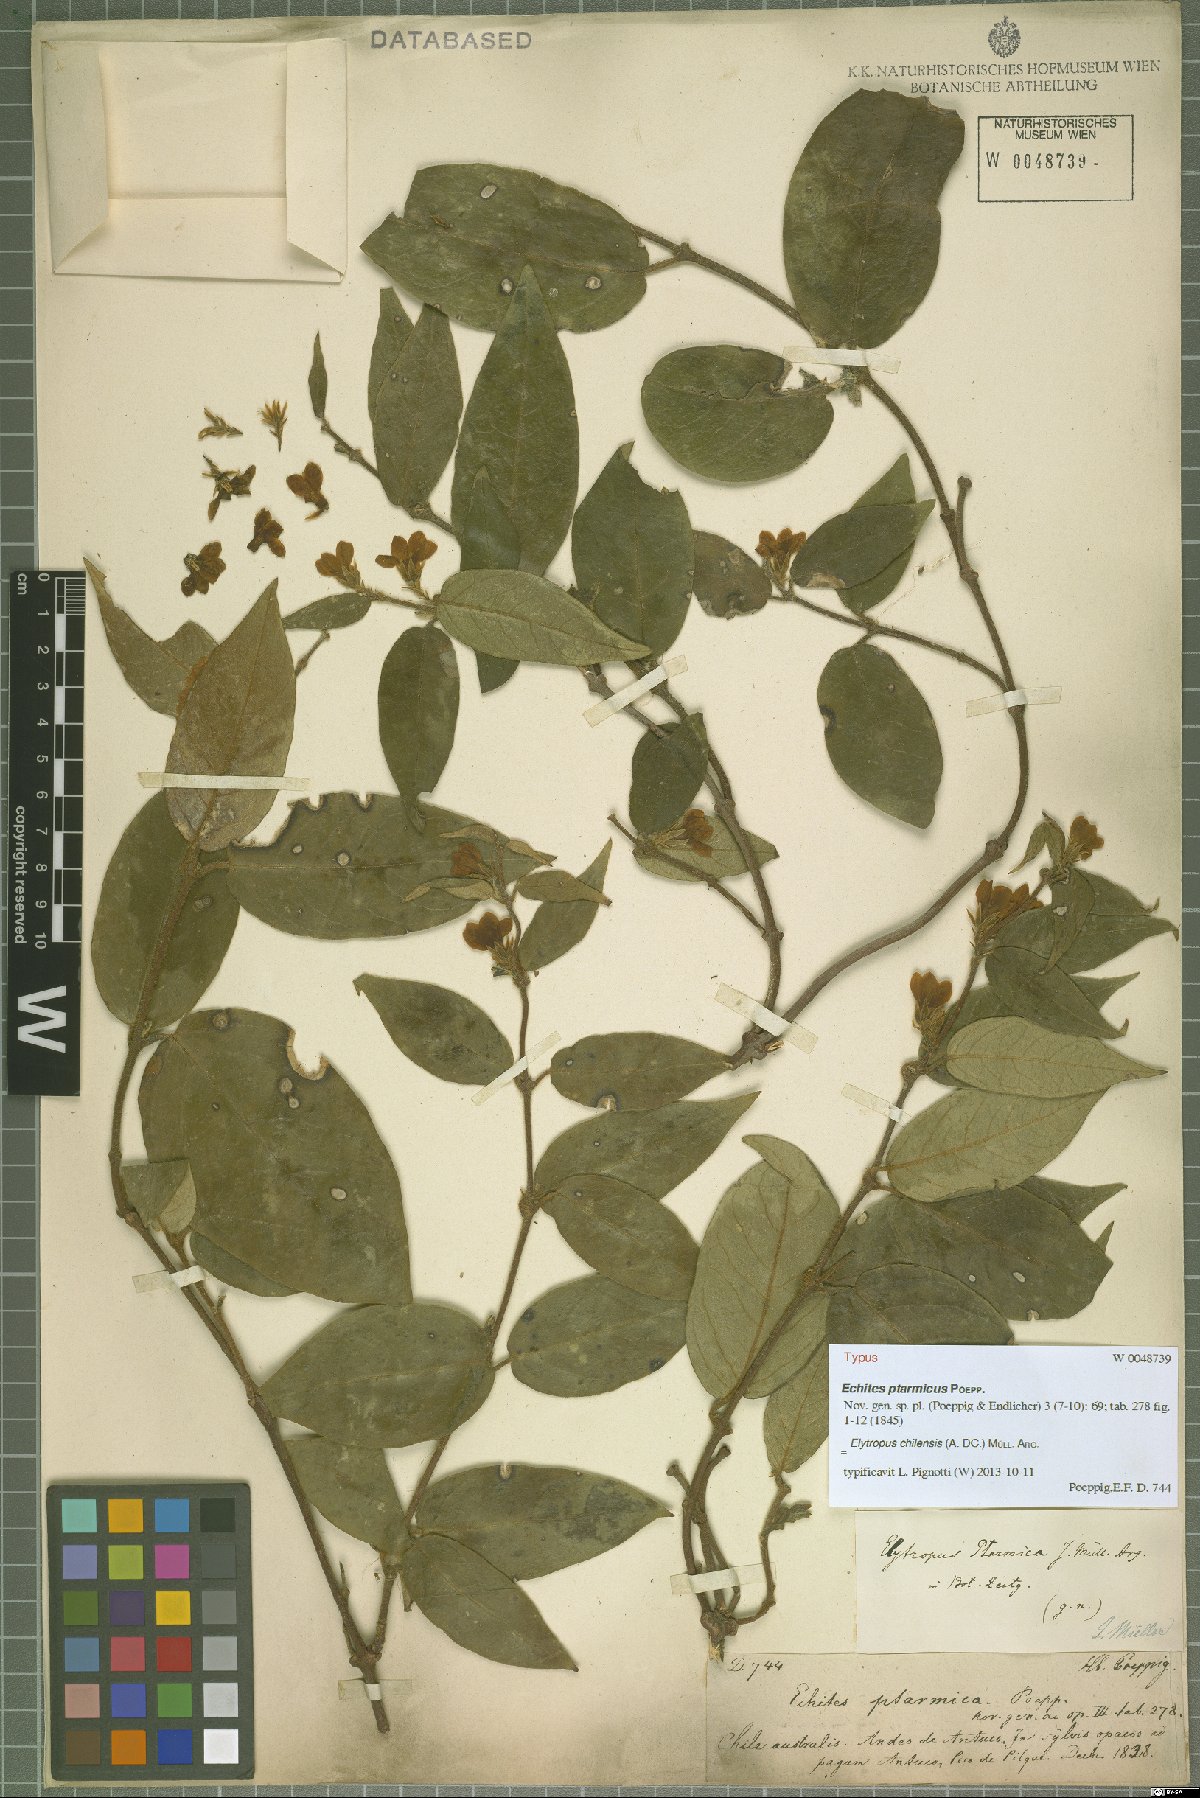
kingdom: Plantae
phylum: Tracheophyta
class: Magnoliopsida
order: Gentianales
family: Apocynaceae
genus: Mandevilla
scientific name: Mandevilla pubescens
